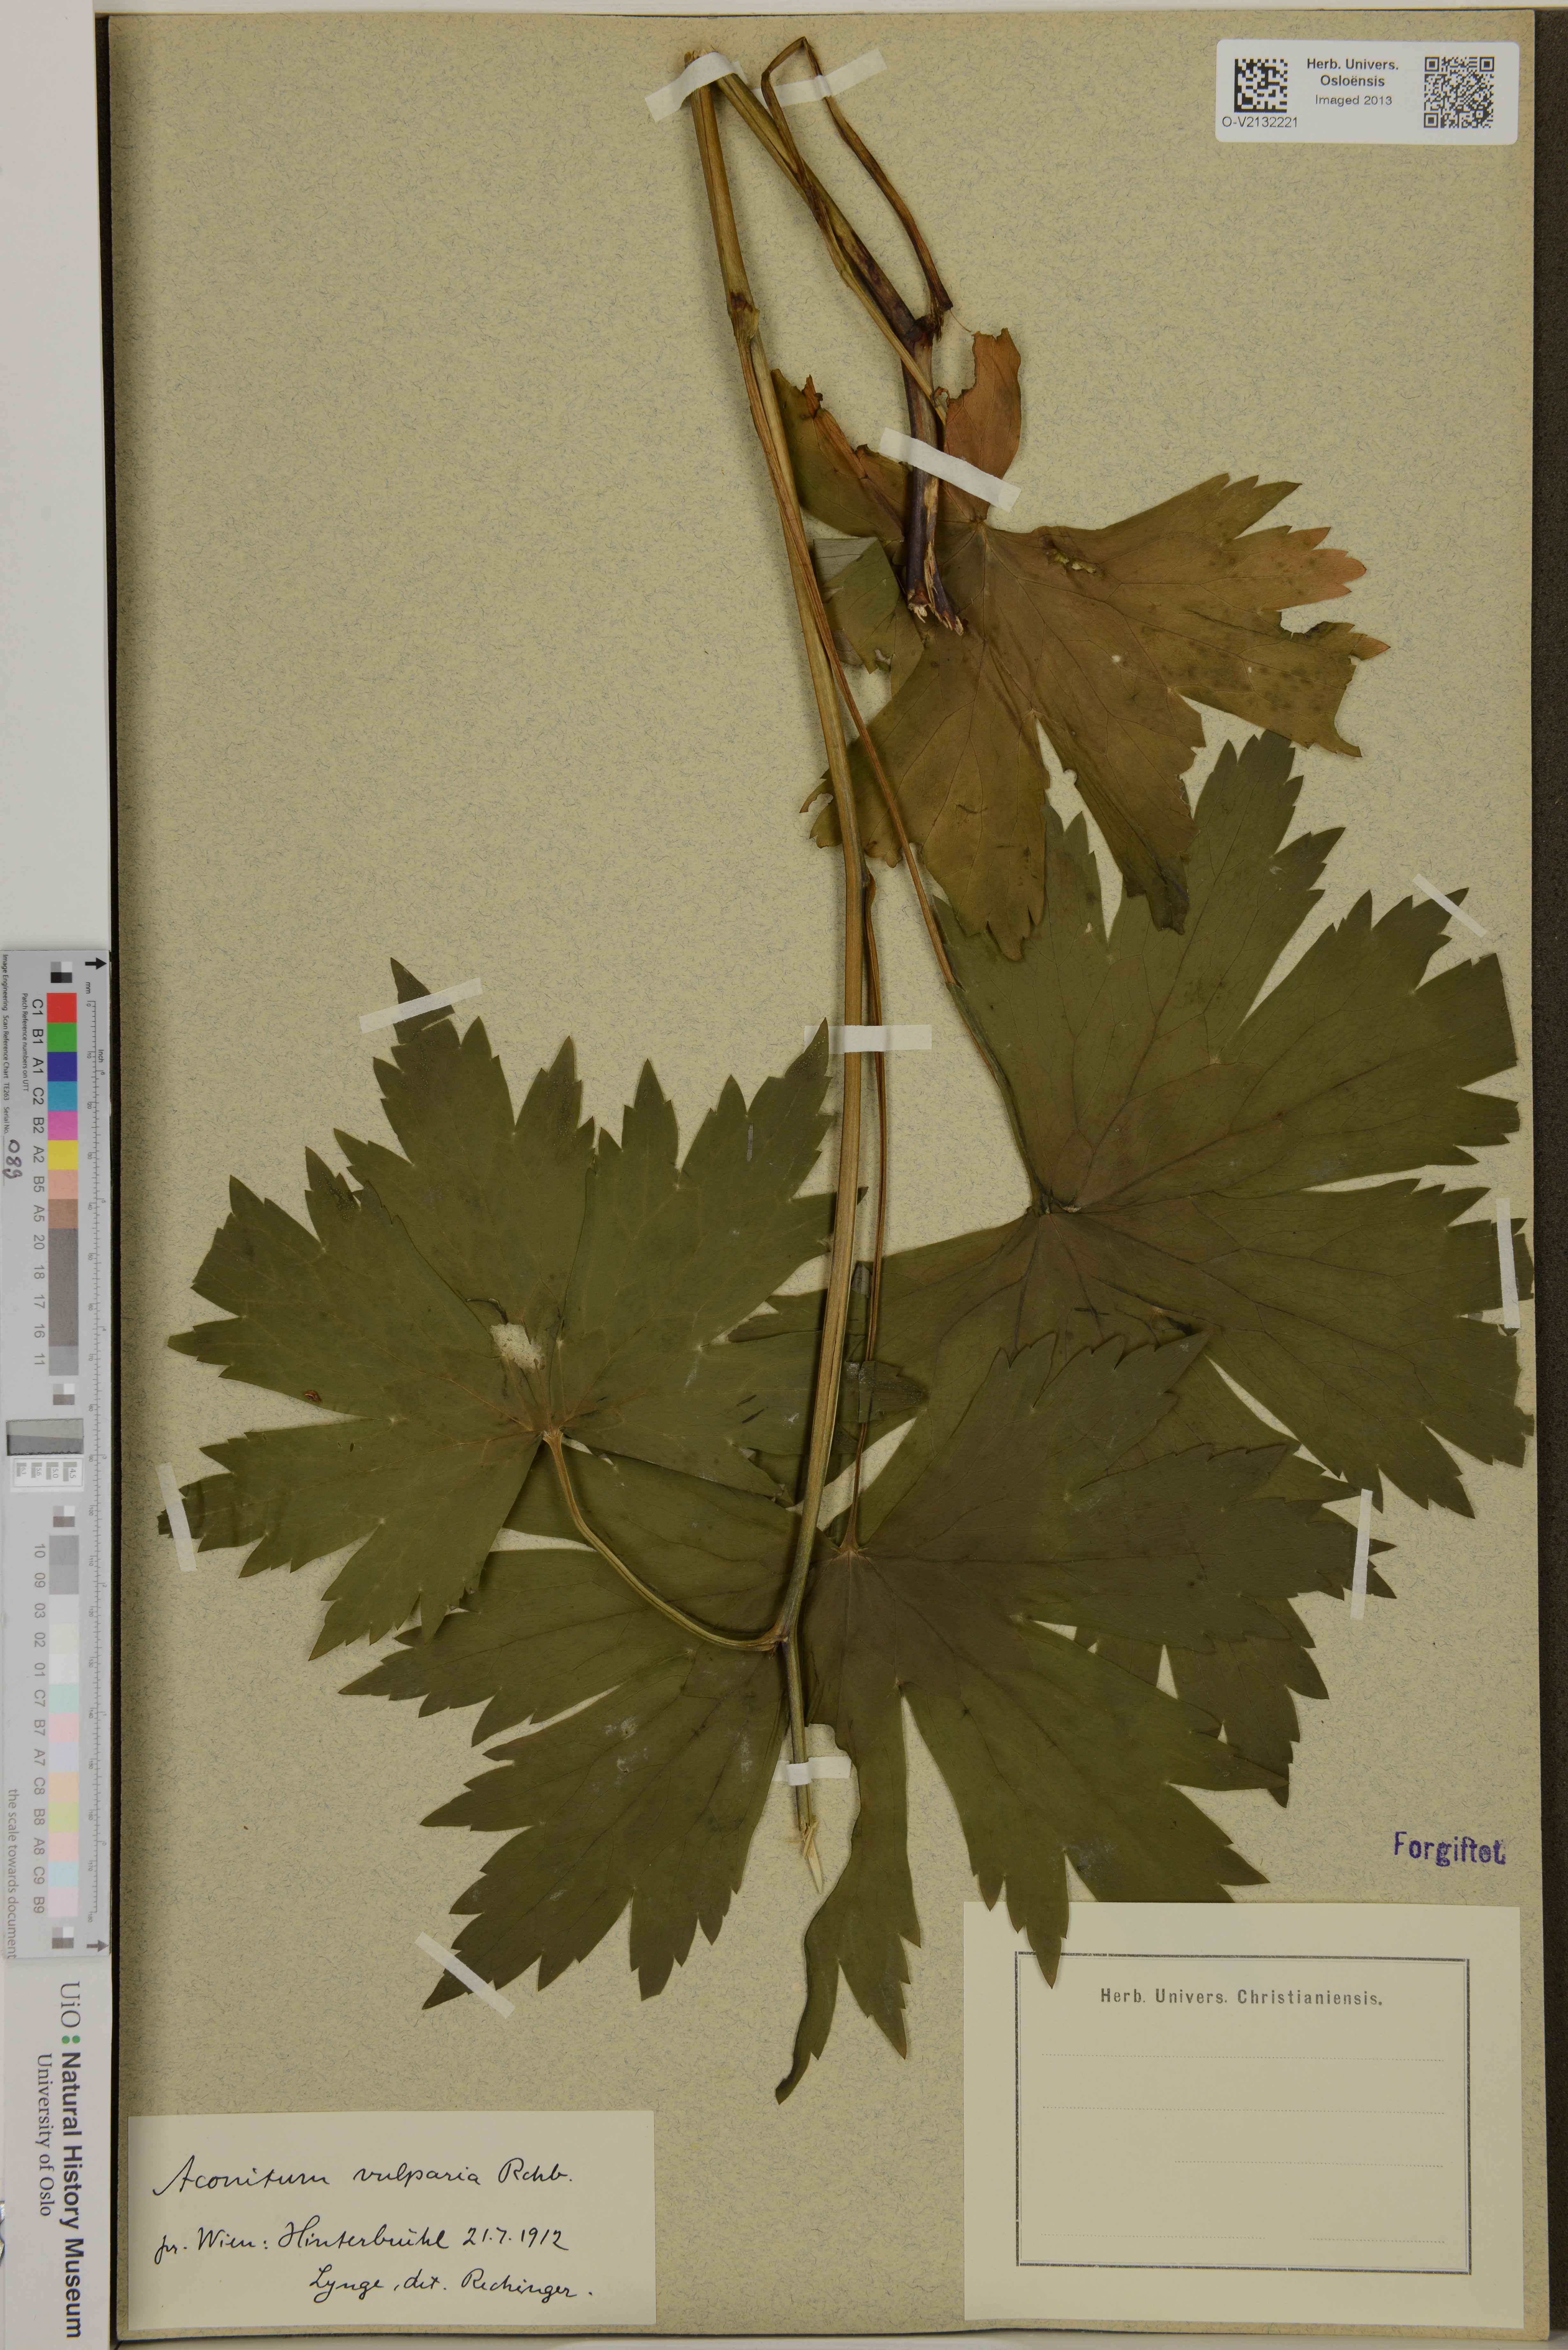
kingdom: Plantae
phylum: Tracheophyta
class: Magnoliopsida
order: Ranunculales
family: Ranunculaceae
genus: Aconitum
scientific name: Aconitum lycoctonum
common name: Wolf's-bane
